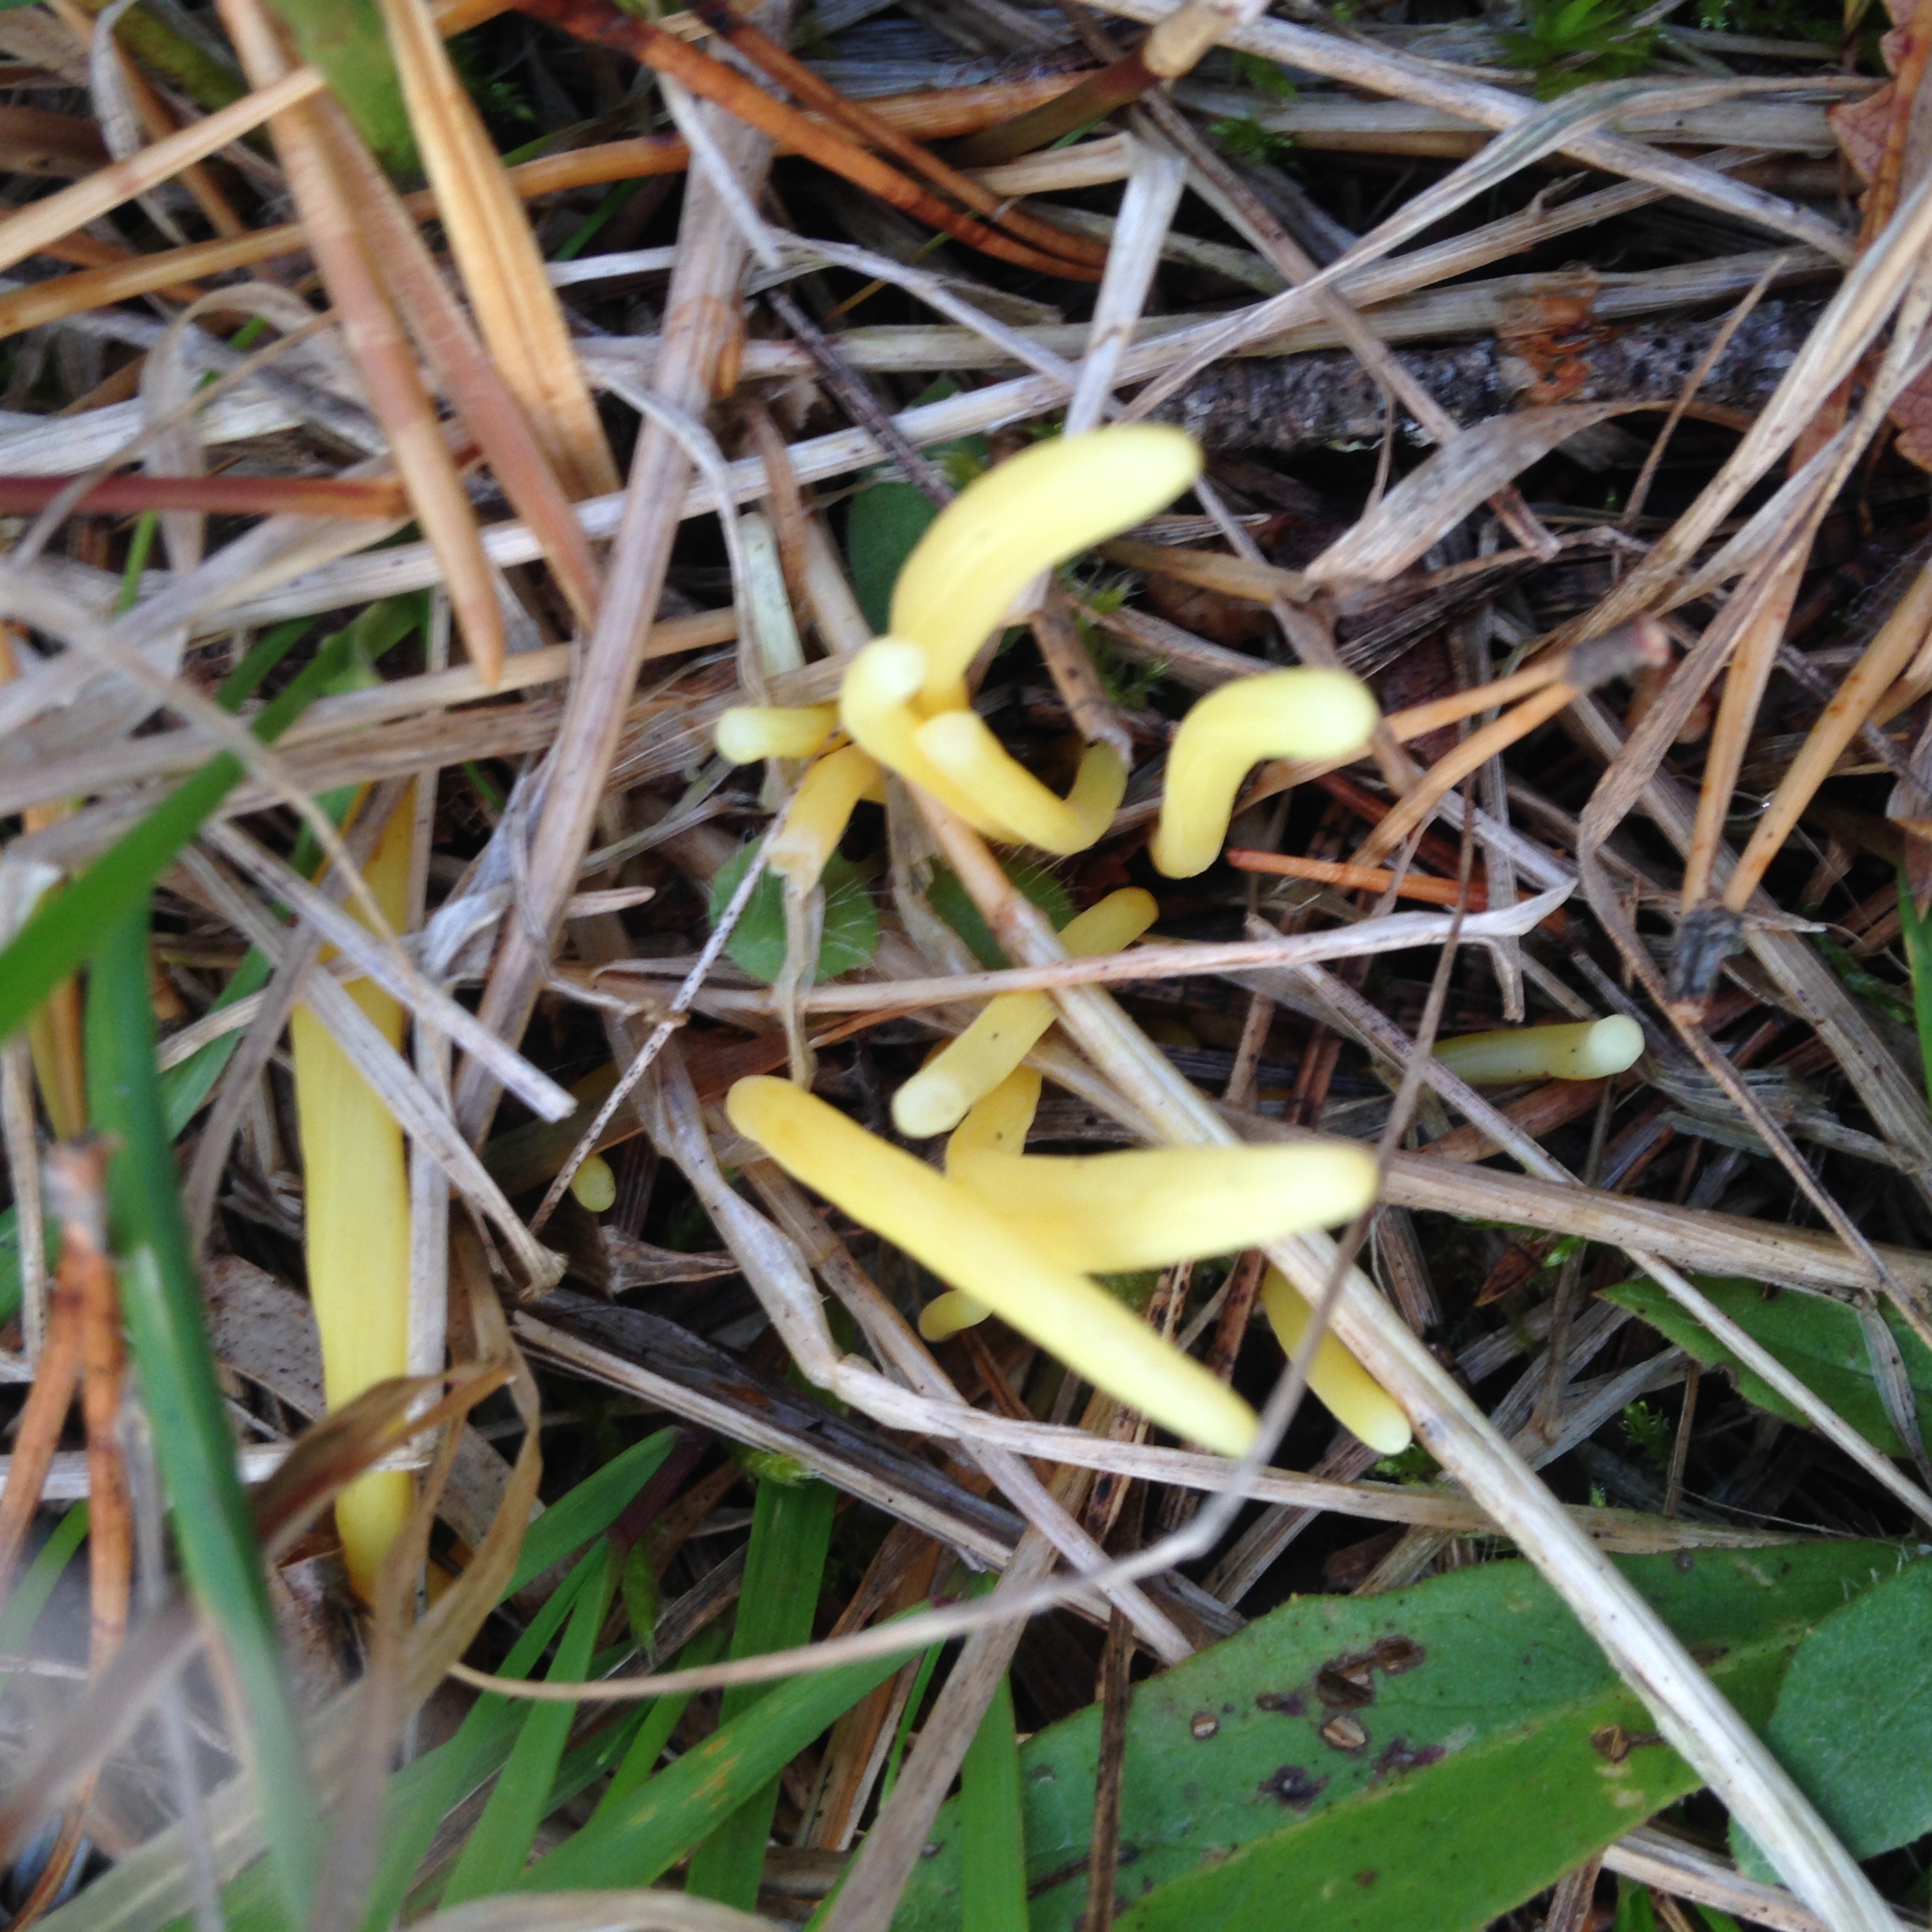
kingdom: Fungi
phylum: Basidiomycota
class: Agaricomycetes
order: Agaricales
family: Clavariaceae
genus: Clavulinopsis
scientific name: Clavulinopsis
